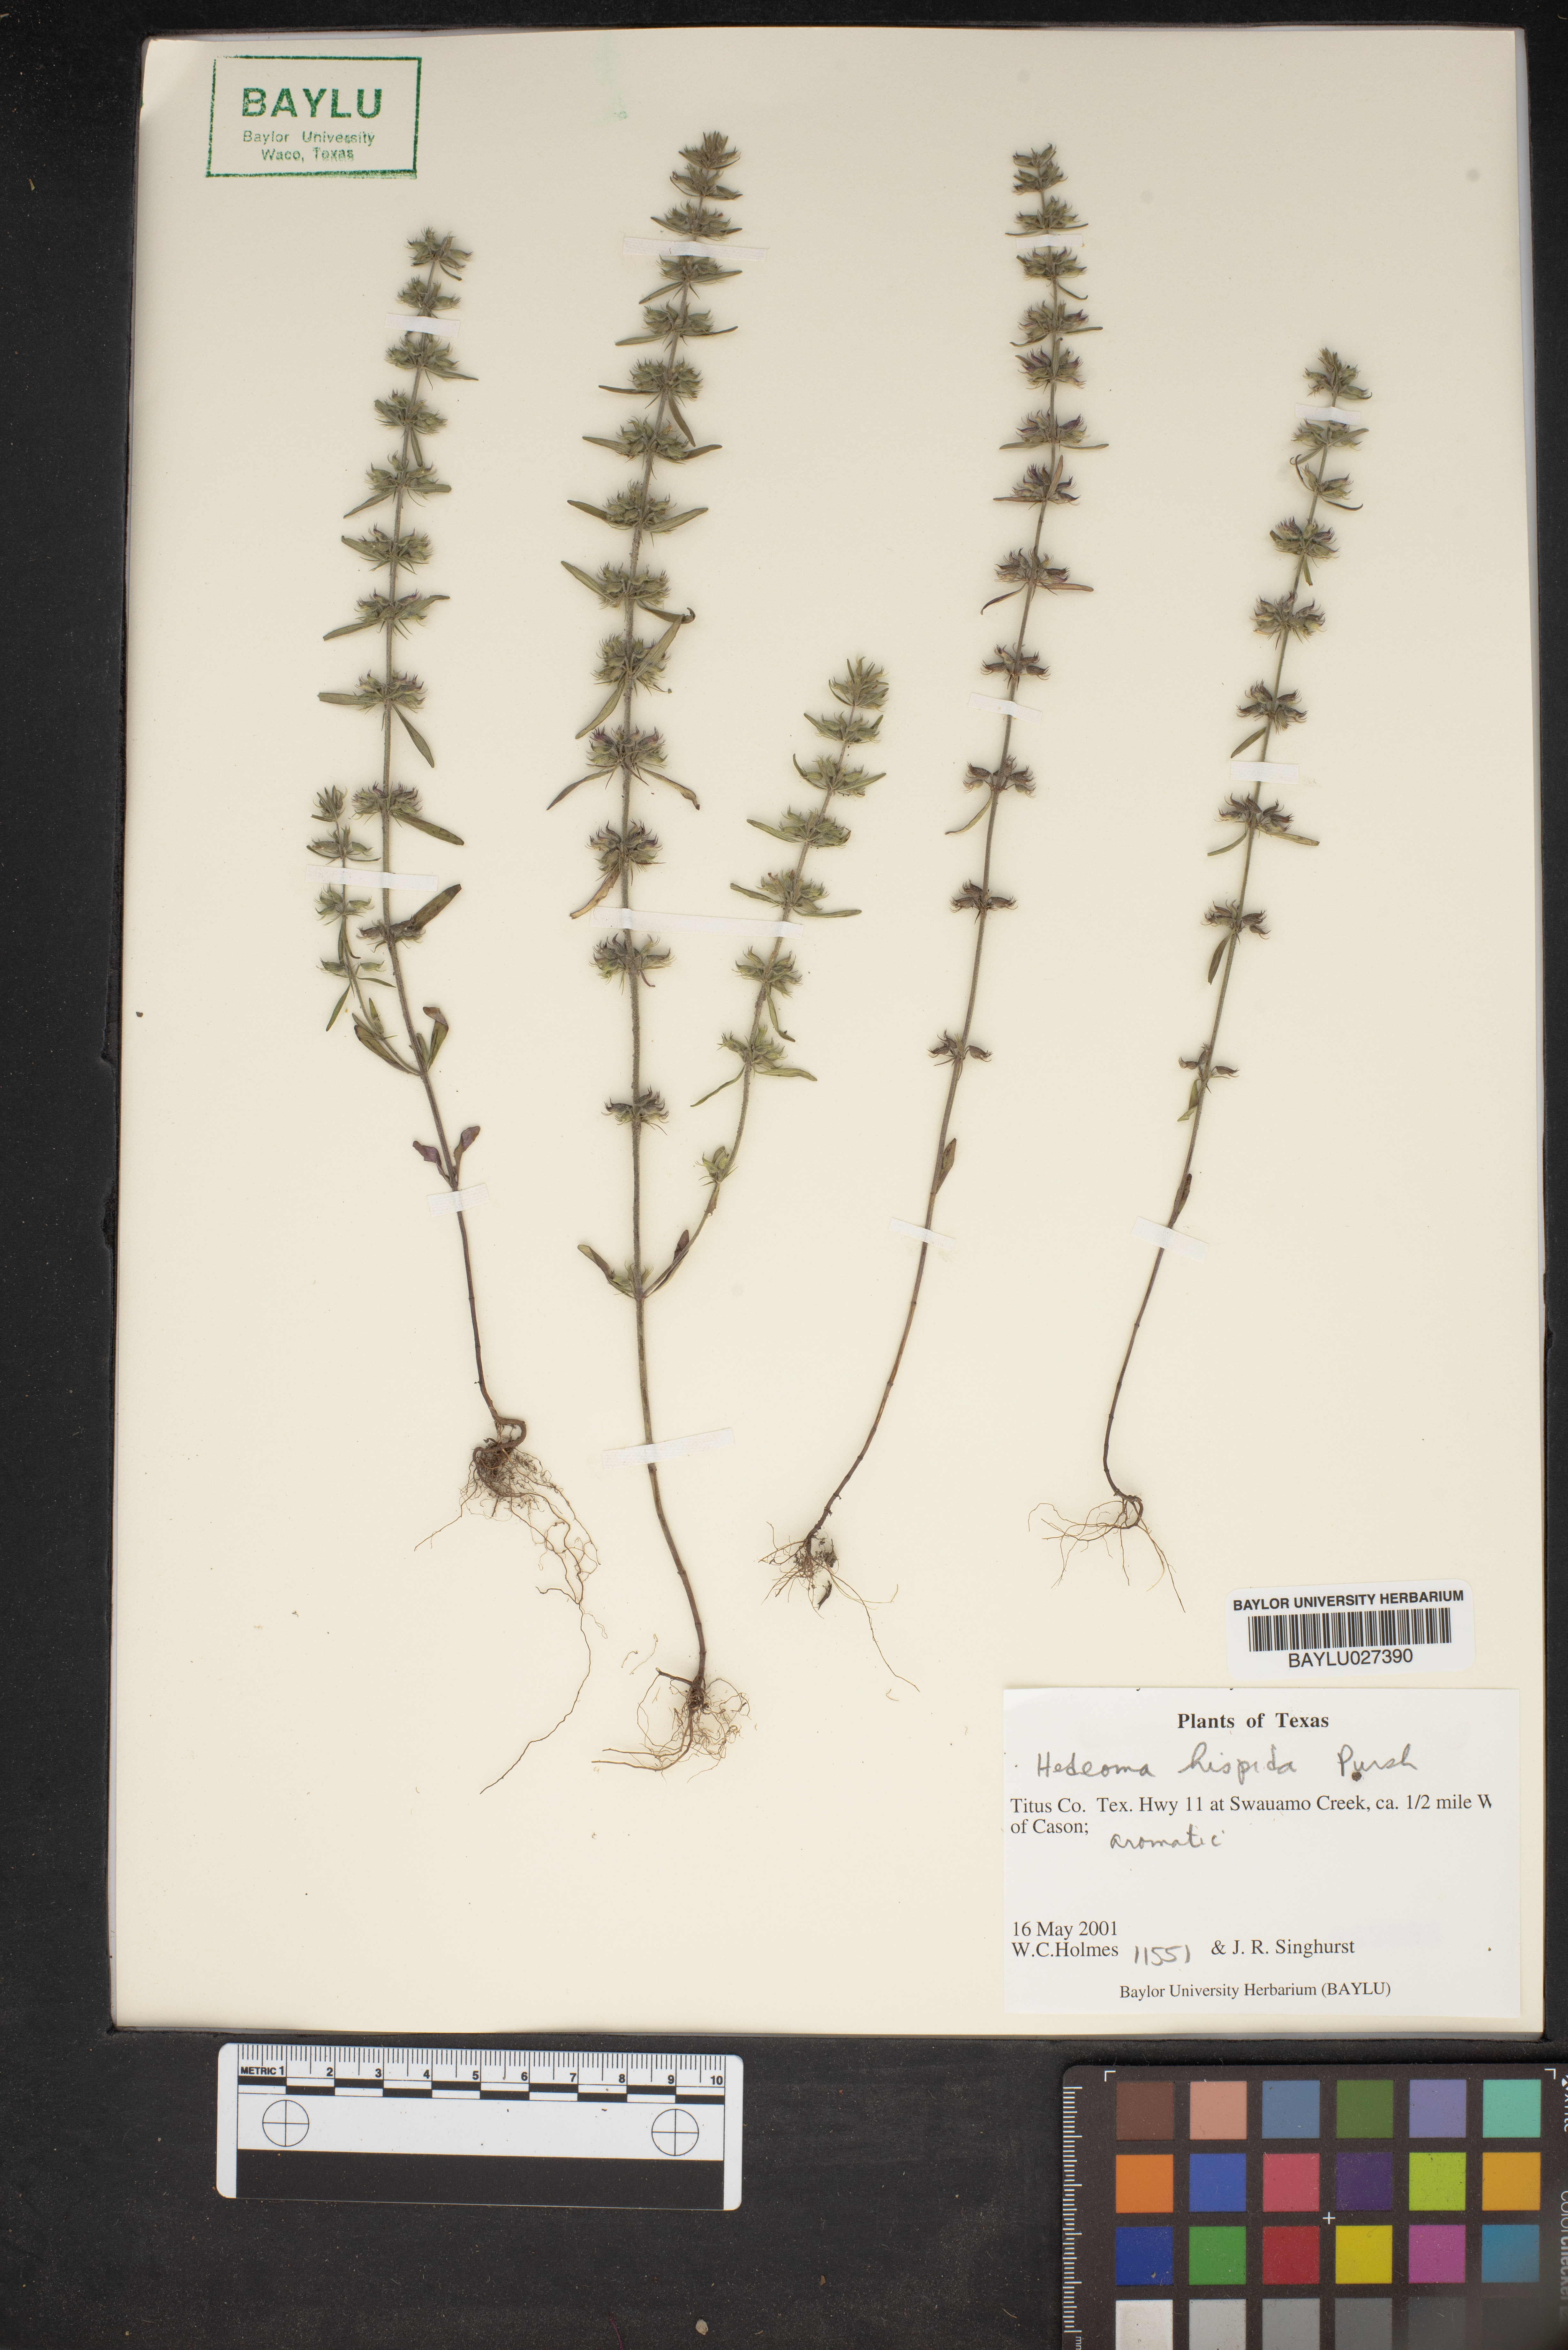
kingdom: Plantae
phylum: Tracheophyta
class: Magnoliopsida
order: Lamiales
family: Lamiaceae
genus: Hedeoma
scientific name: Hedeoma hispida
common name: Mock pennyroyal
